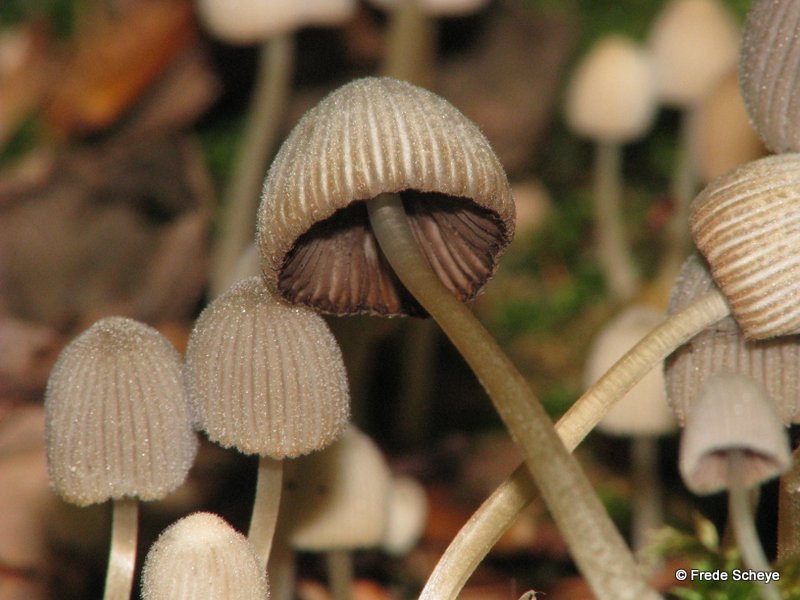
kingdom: Fungi
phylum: Basidiomycota
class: Agaricomycetes
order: Agaricales
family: Psathyrellaceae
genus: Coprinellus
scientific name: Coprinellus disseminatus
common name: bredsået blækhat
